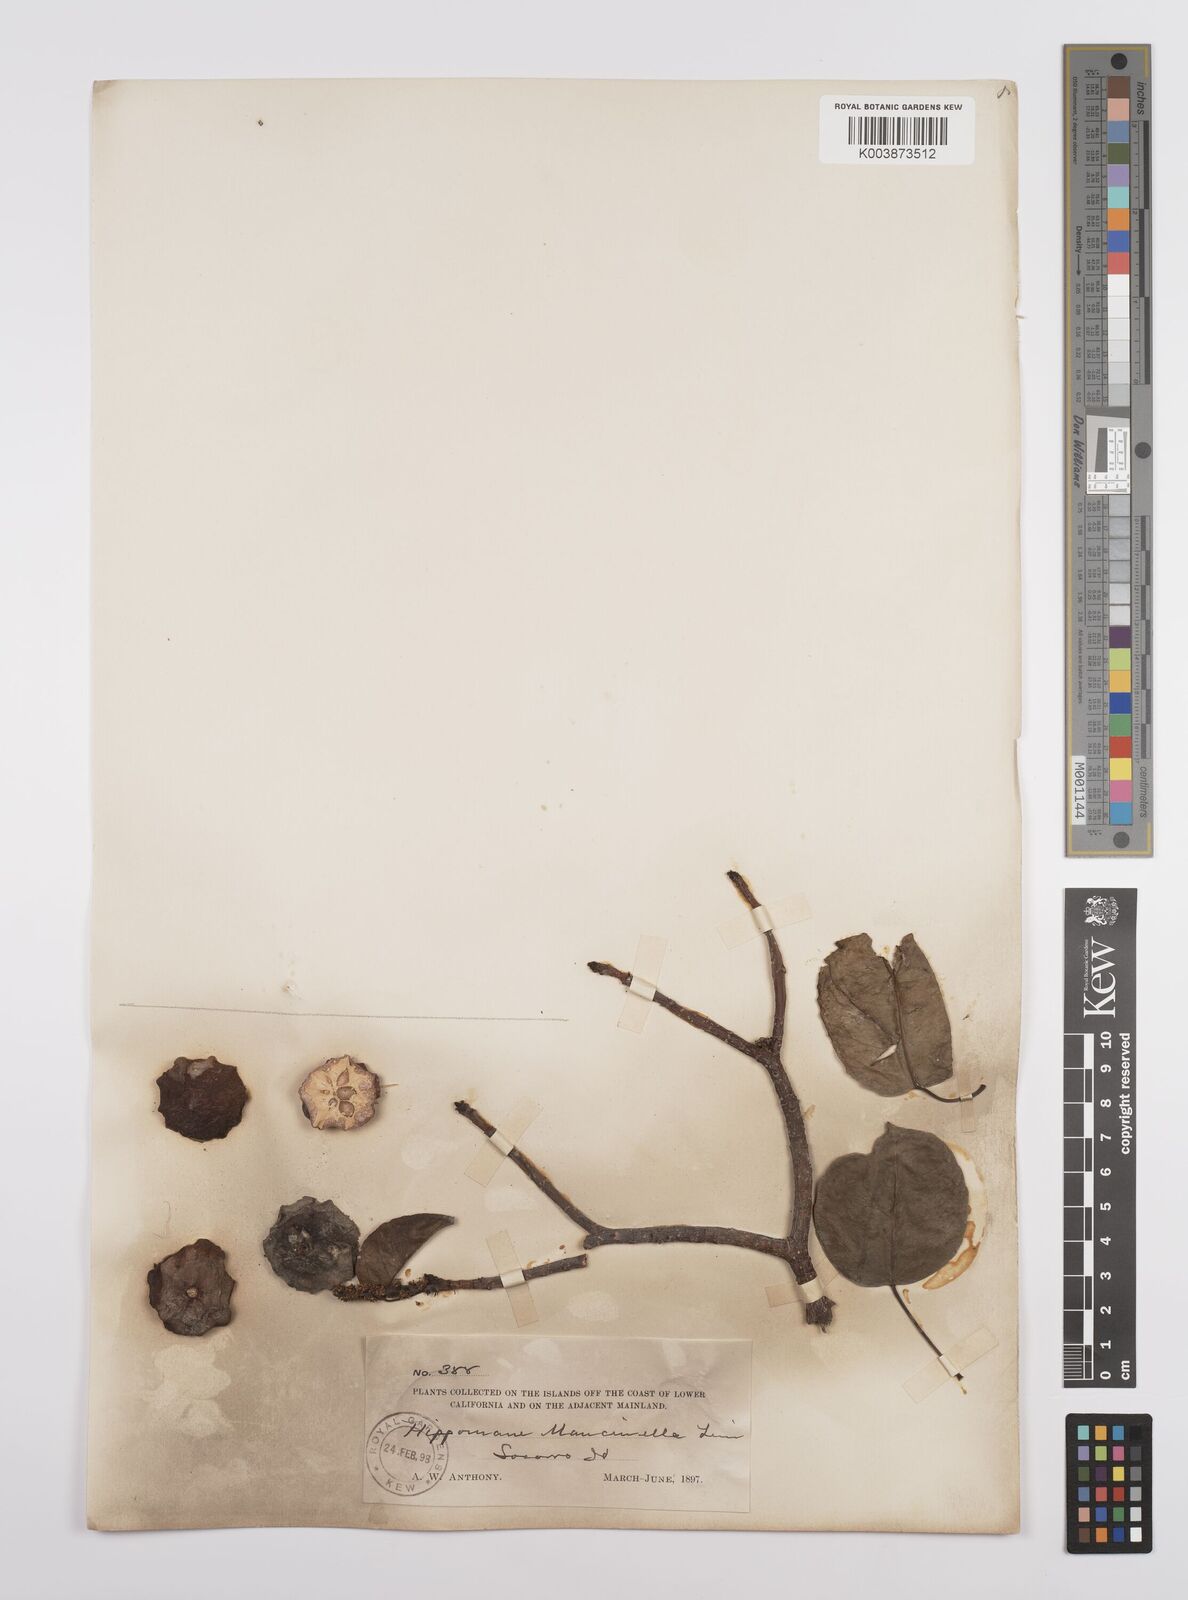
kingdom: Plantae
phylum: Tracheophyta
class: Magnoliopsida
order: Malpighiales
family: Euphorbiaceae
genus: Hippomane
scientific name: Hippomane mancinella
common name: Manchineel
